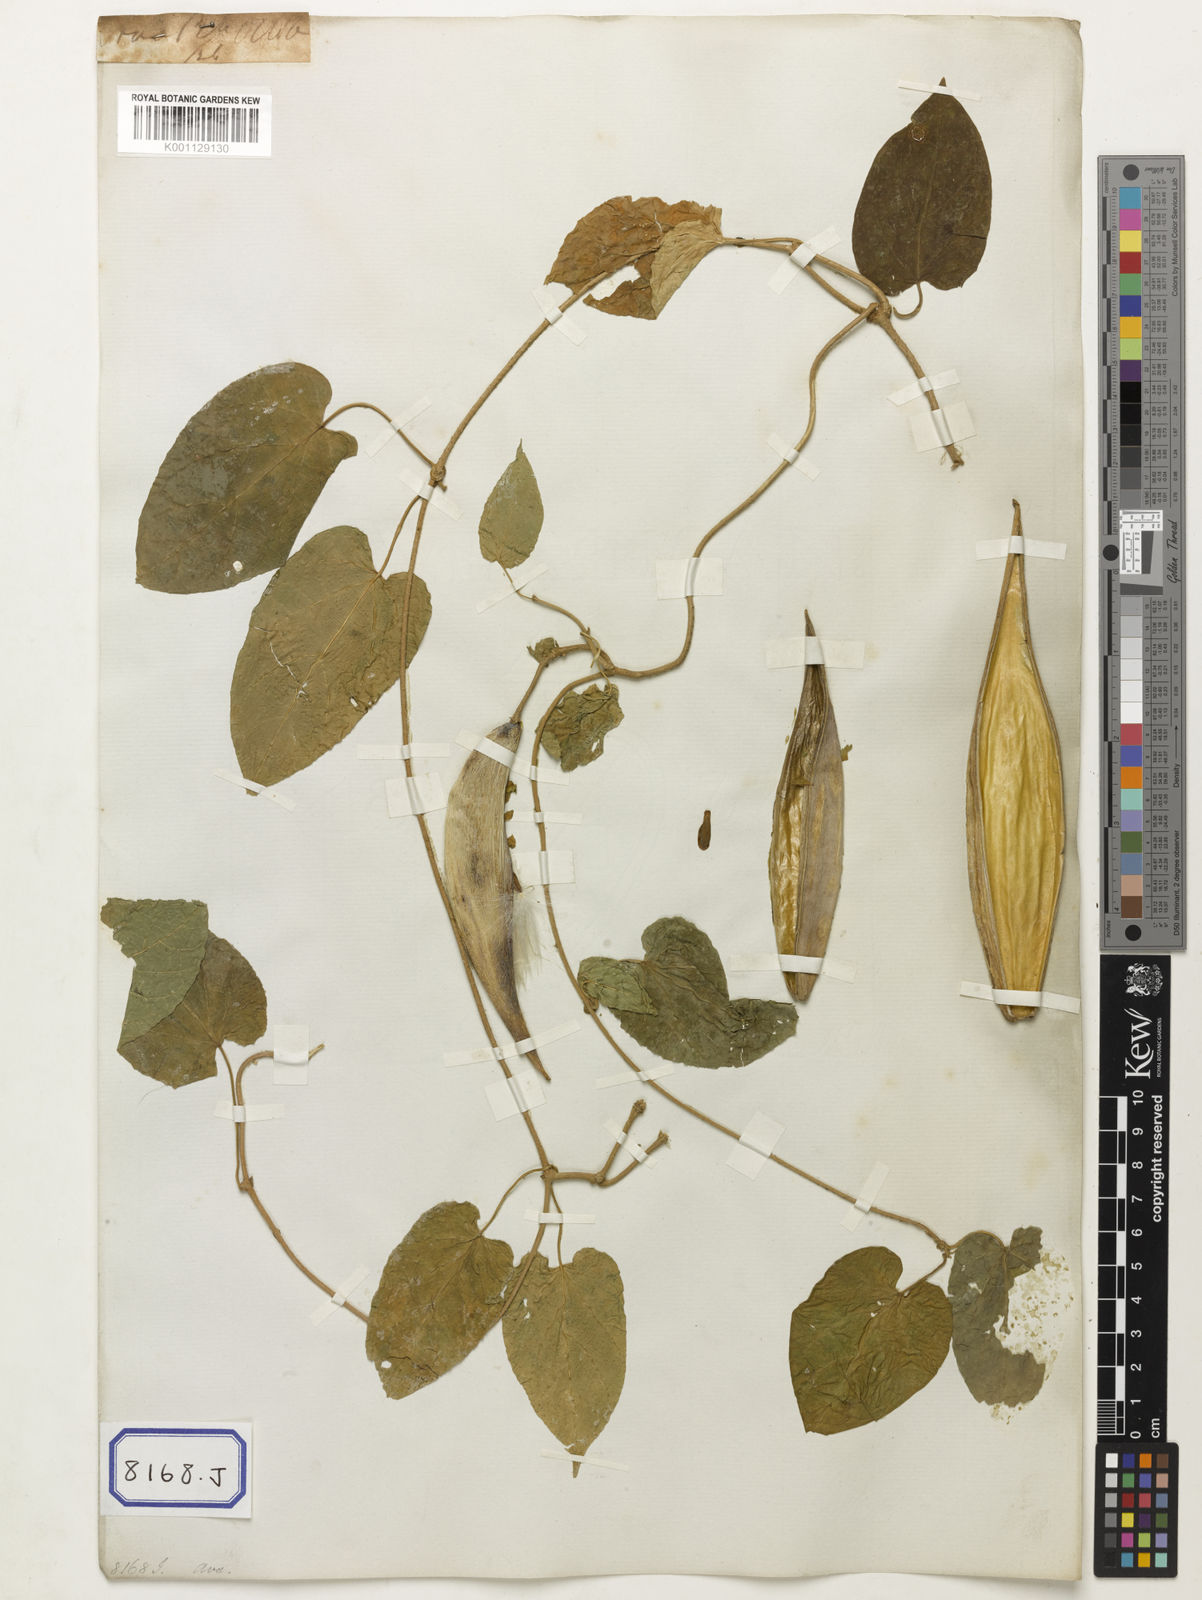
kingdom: Plantae
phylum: Tracheophyta
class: Magnoliopsida
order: Gentianales
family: Apocynaceae
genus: Stephanotis
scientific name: Stephanotis volubilis
